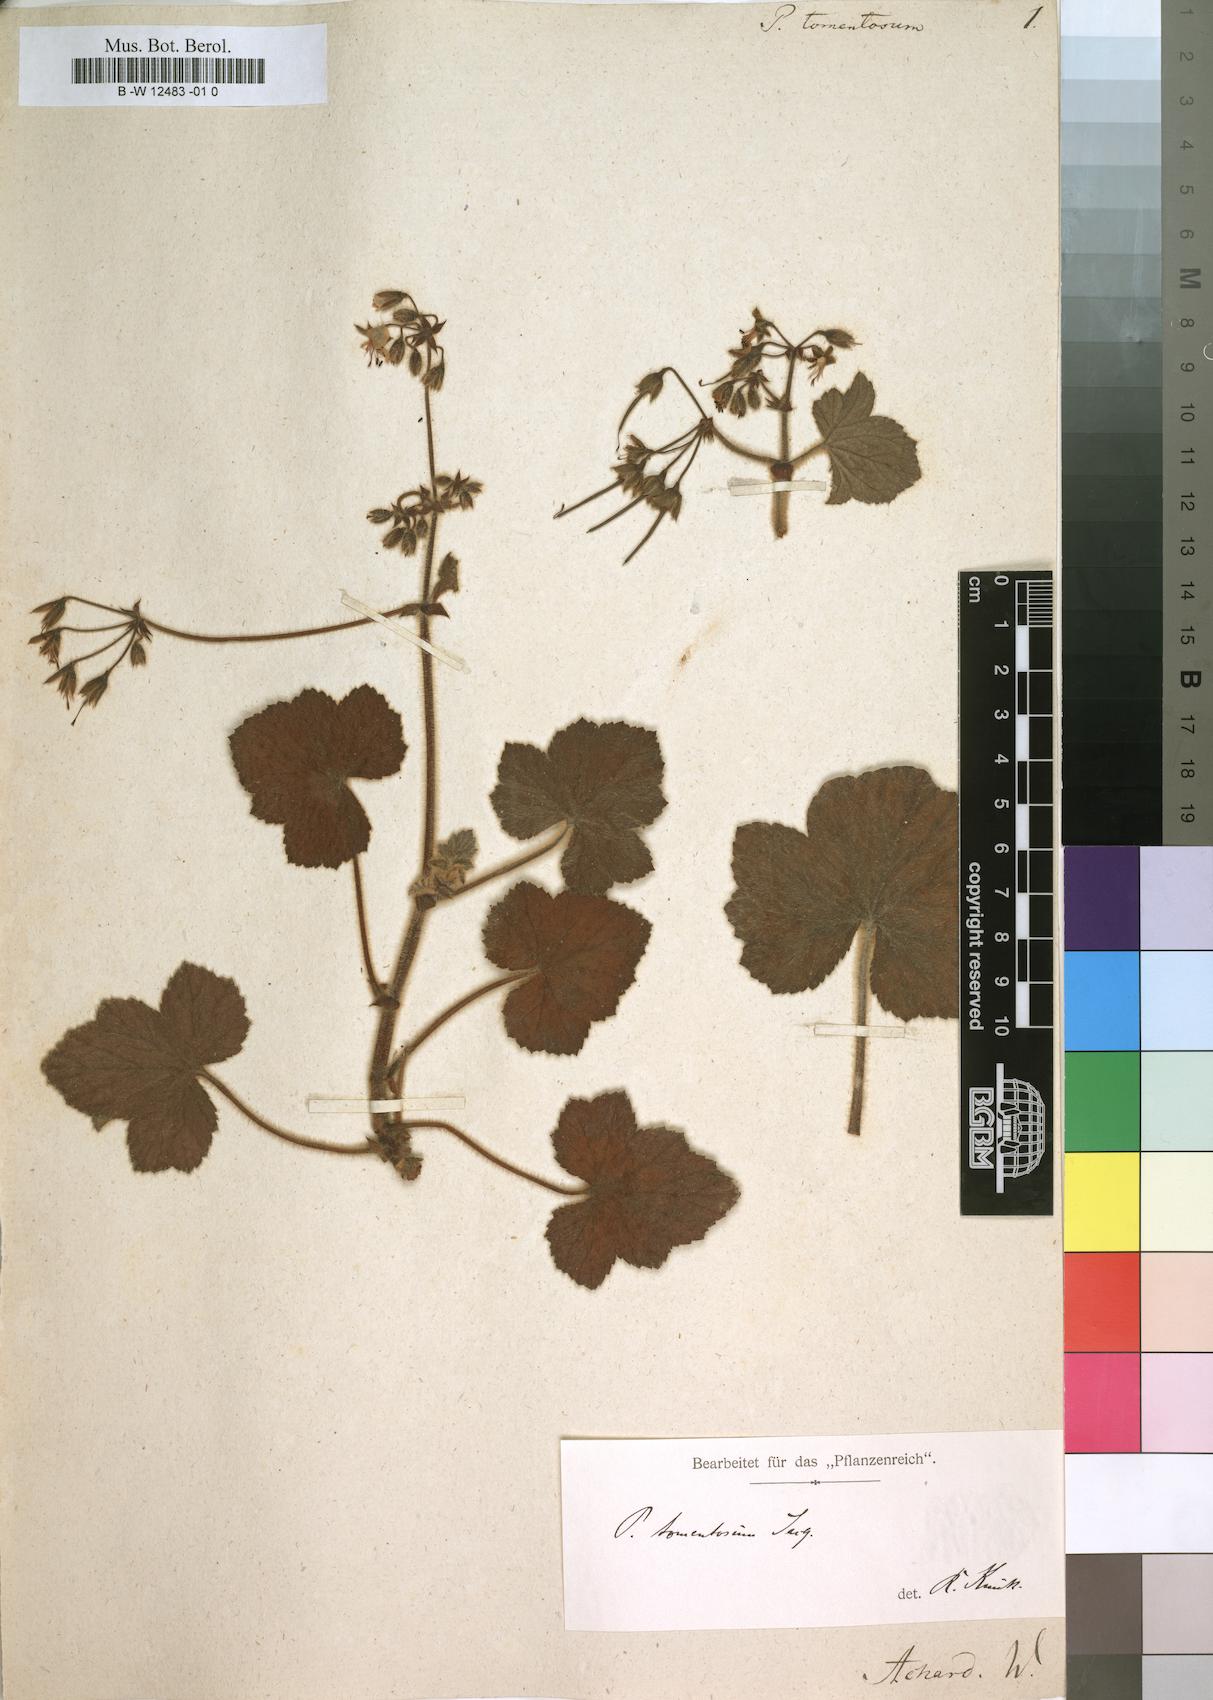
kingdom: Plantae
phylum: Tracheophyta
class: Magnoliopsida
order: Geraniales
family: Geraniaceae
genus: Pelargonium
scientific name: Pelargonium tomentosum
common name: Peppermint-scented geranium
